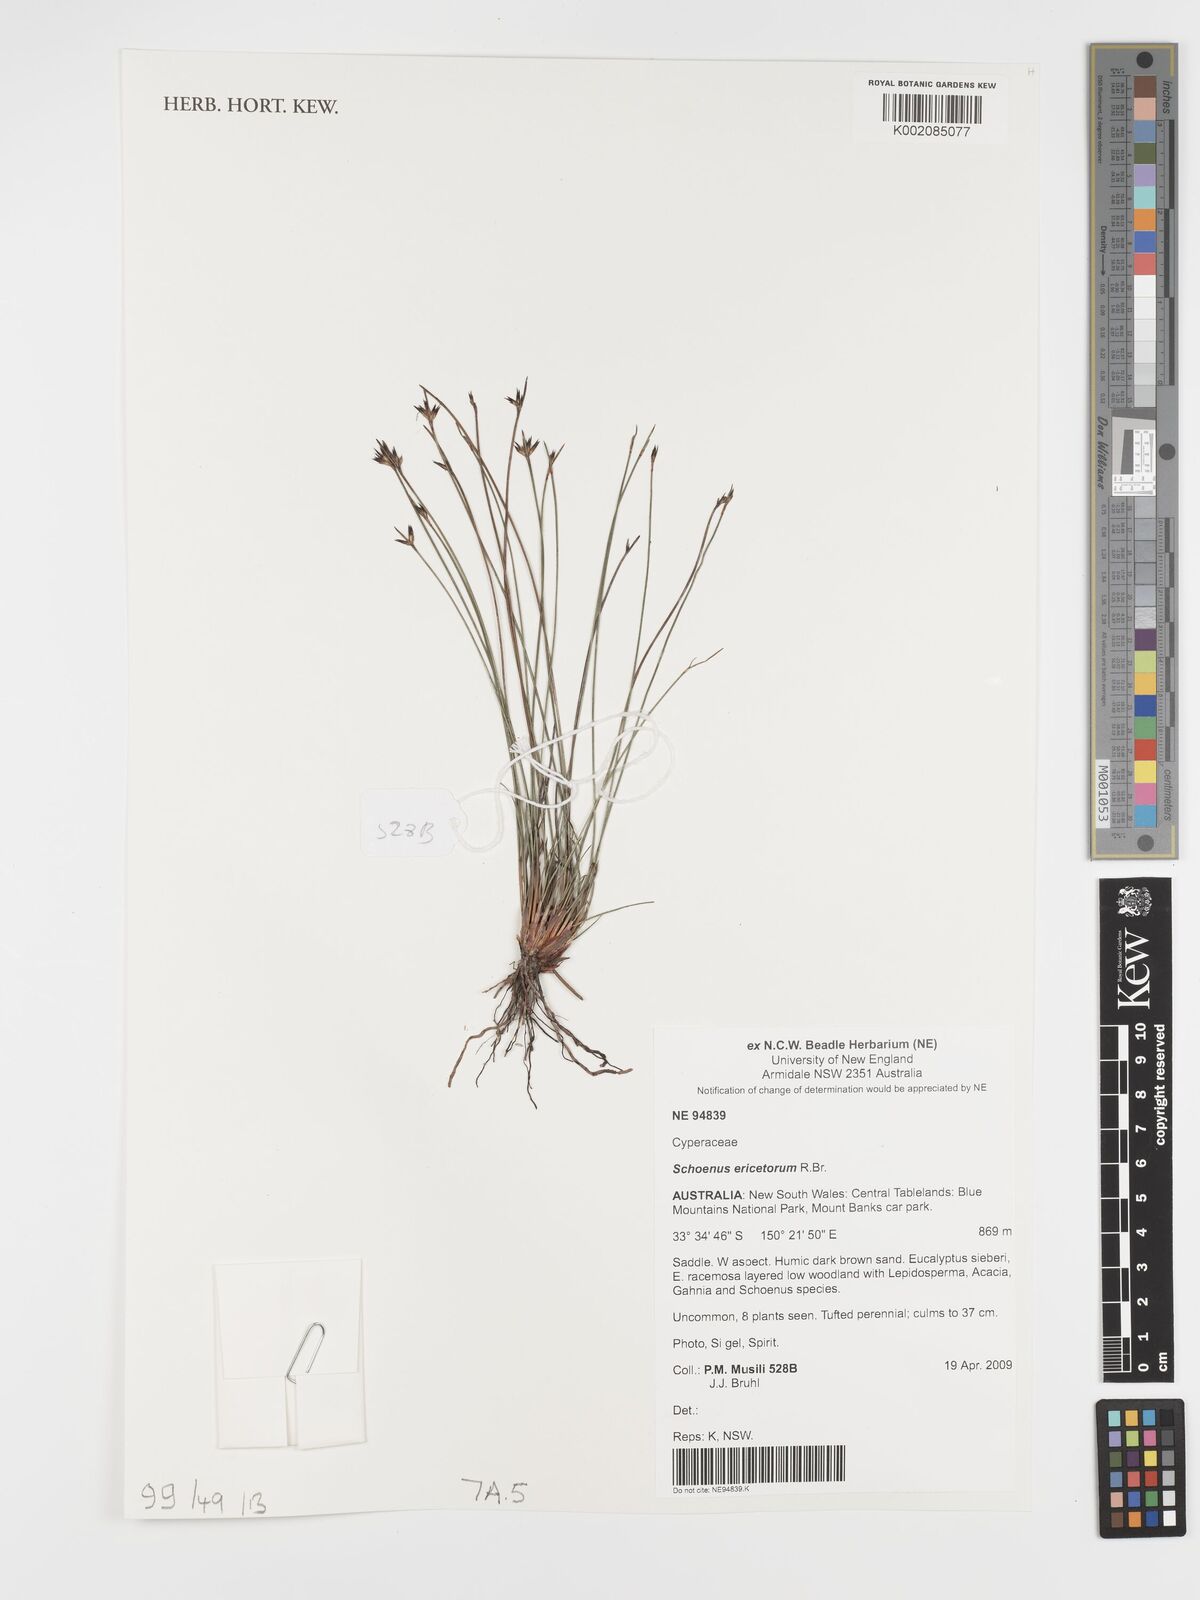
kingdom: Plantae
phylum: Tracheophyta
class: Liliopsida
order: Poales
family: Cyperaceae
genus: Schoenus
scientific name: Schoenus ericetorum
